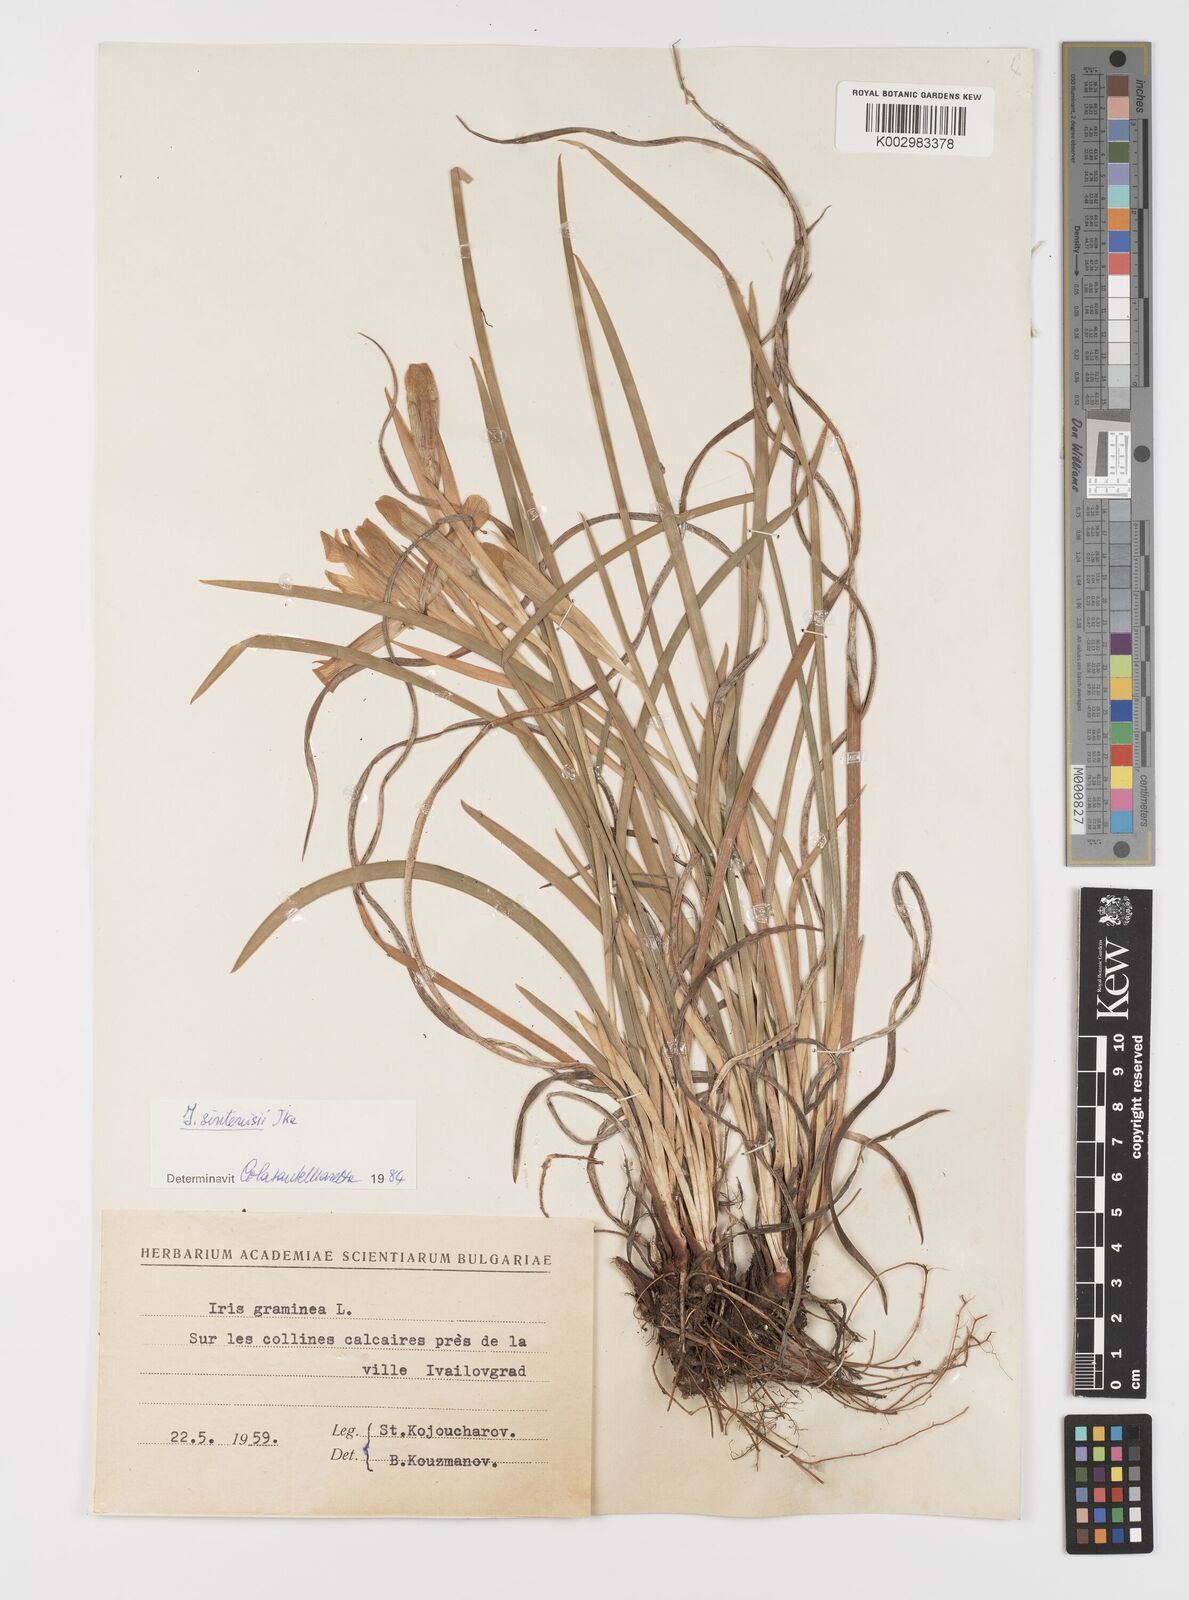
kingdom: Plantae
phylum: Tracheophyta
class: Liliopsida
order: Asparagales
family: Iridaceae
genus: Iris
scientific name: Iris
